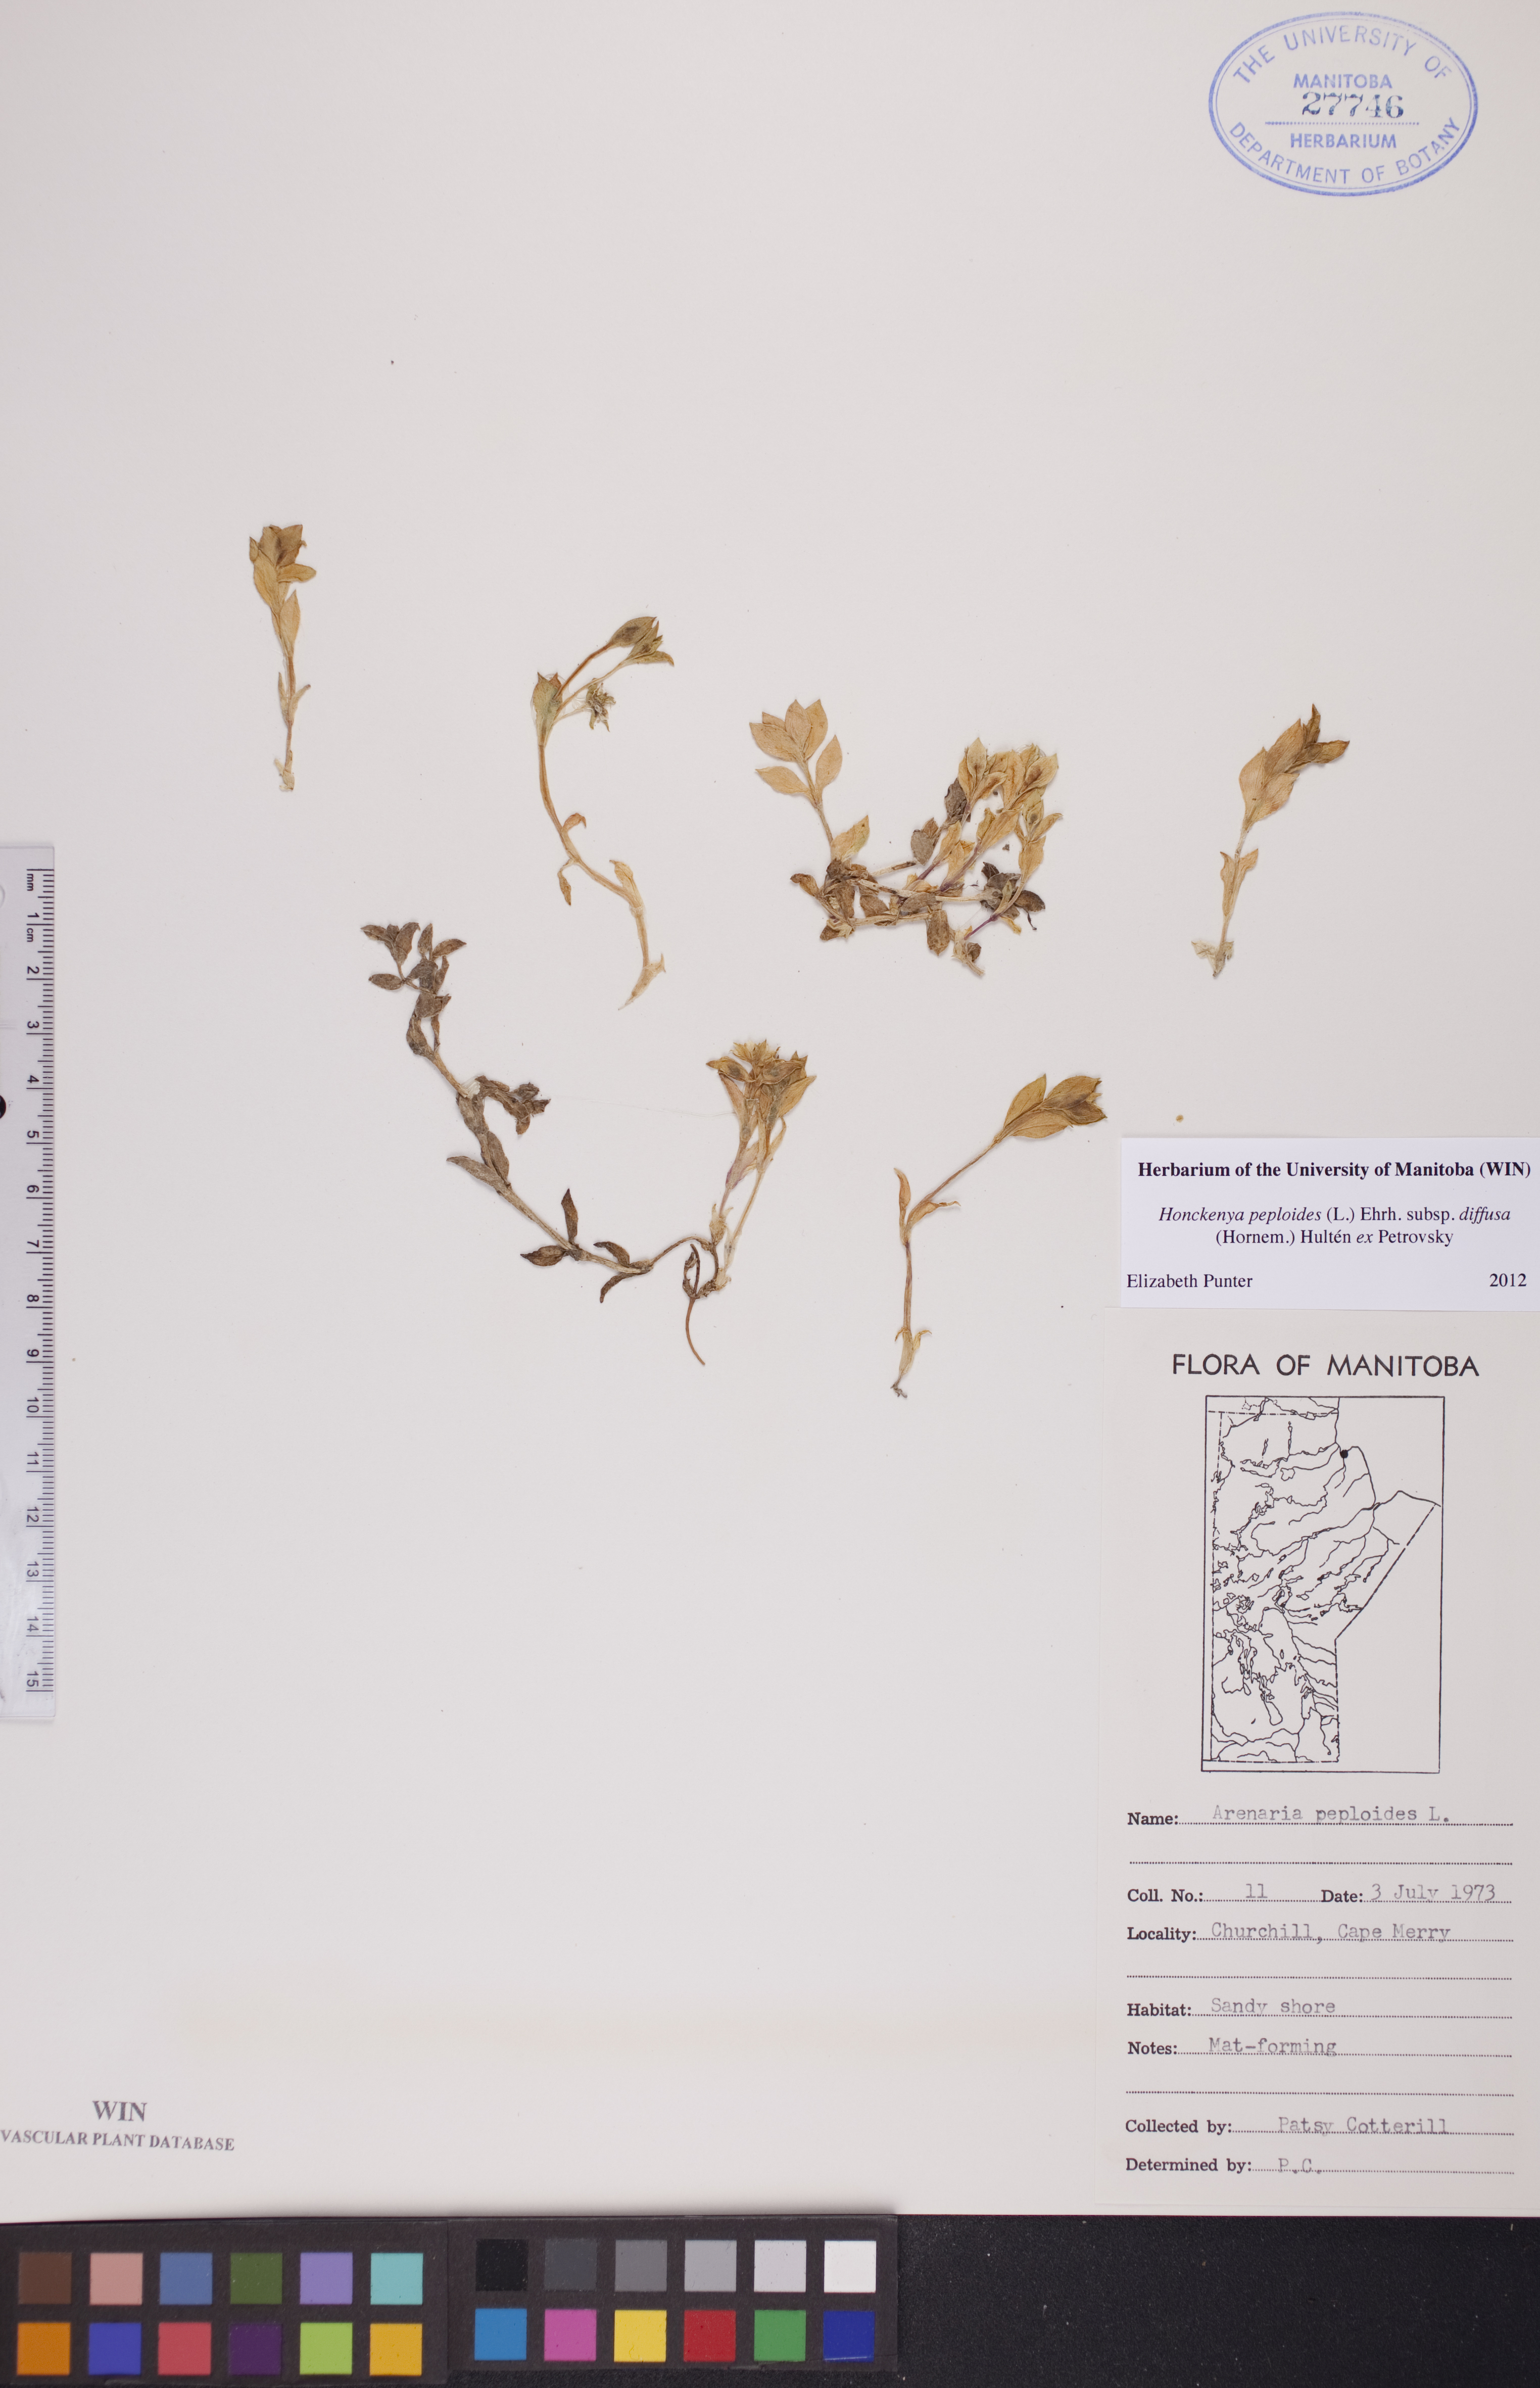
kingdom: Plantae
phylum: Tracheophyta
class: Magnoliopsida
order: Caryophyllales
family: Caryophyllaceae
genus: Honckenya
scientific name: Honckenya peploides
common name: Sea sandwort
